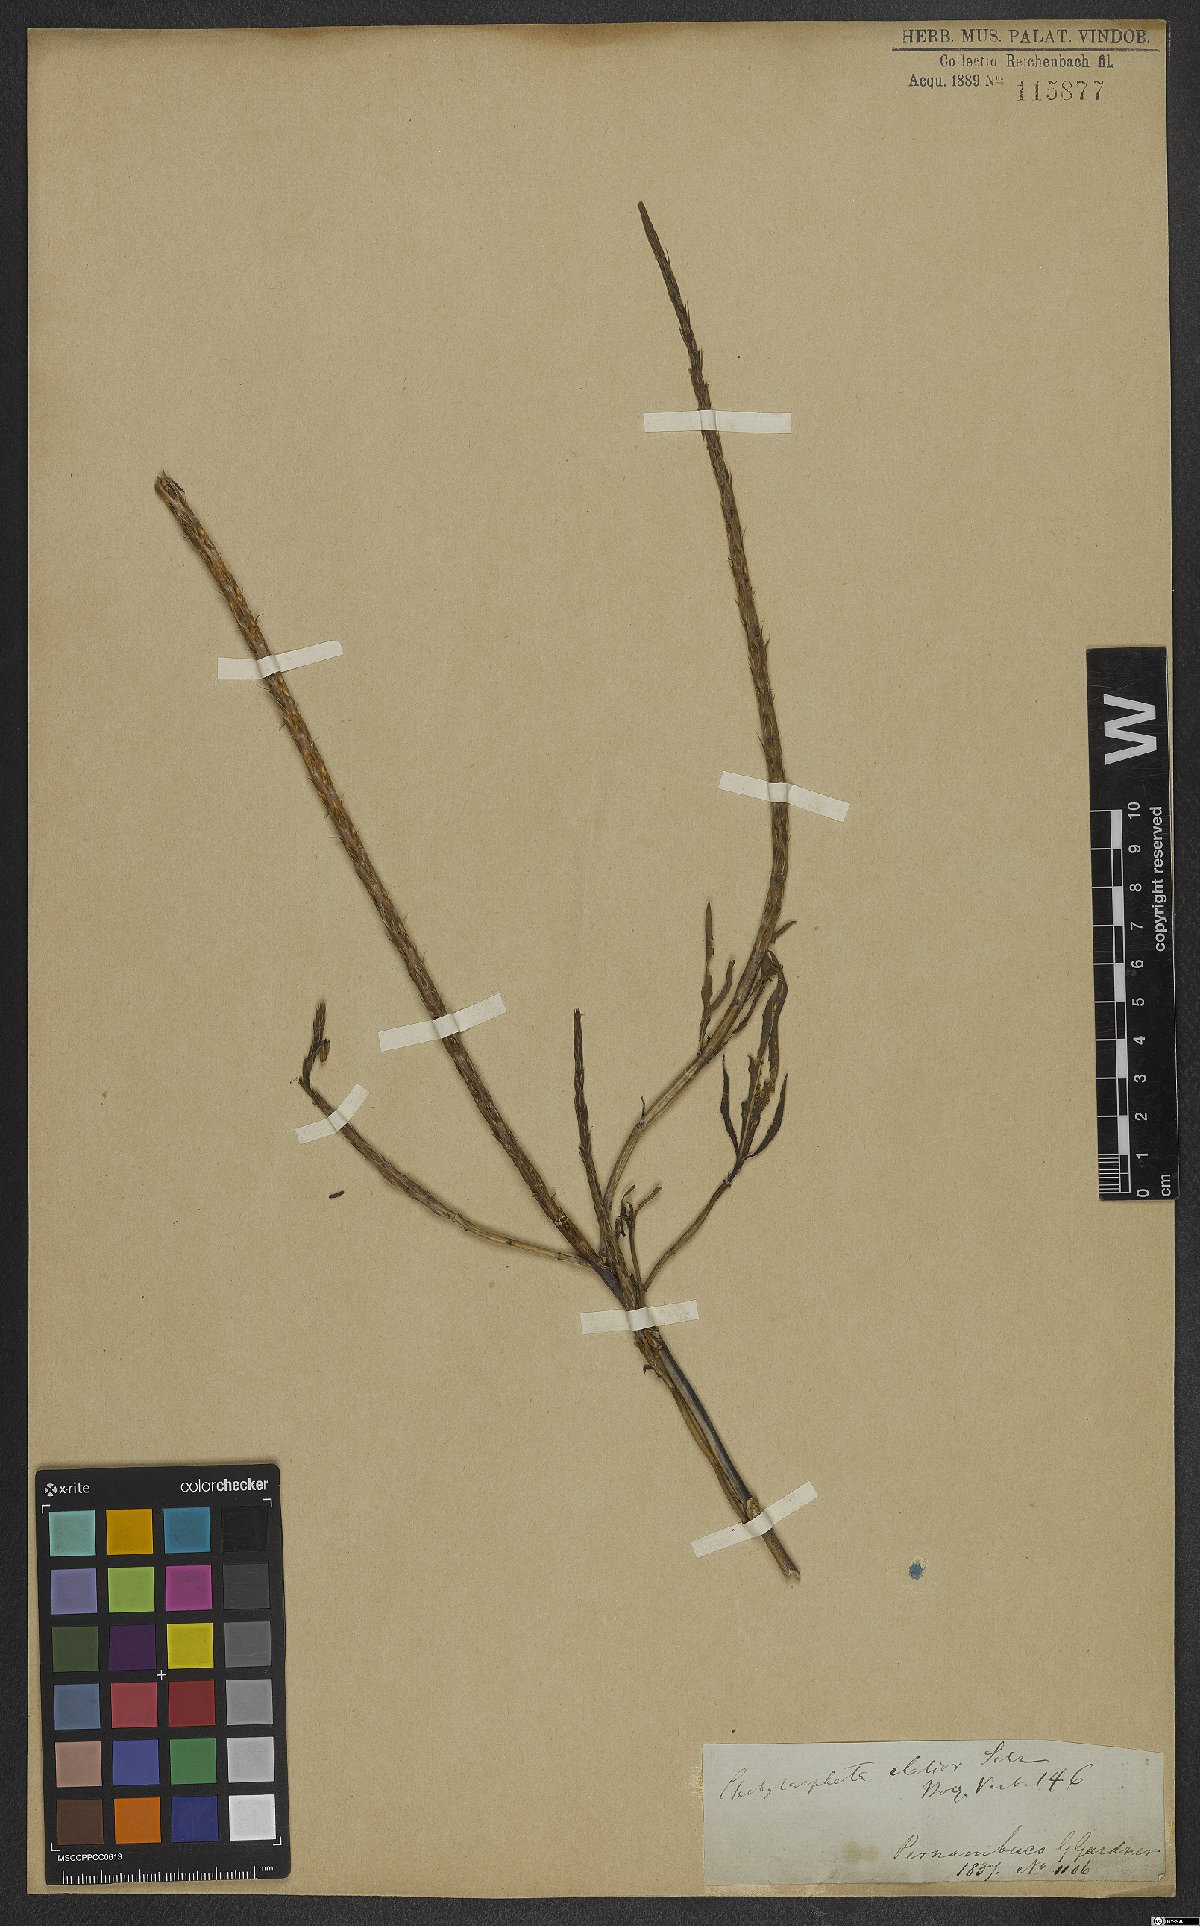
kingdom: Plantae
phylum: Tracheophyta
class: Magnoliopsida
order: Lamiales
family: Verbenaceae
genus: Stachytarpheta
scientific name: Stachytarpheta indica
